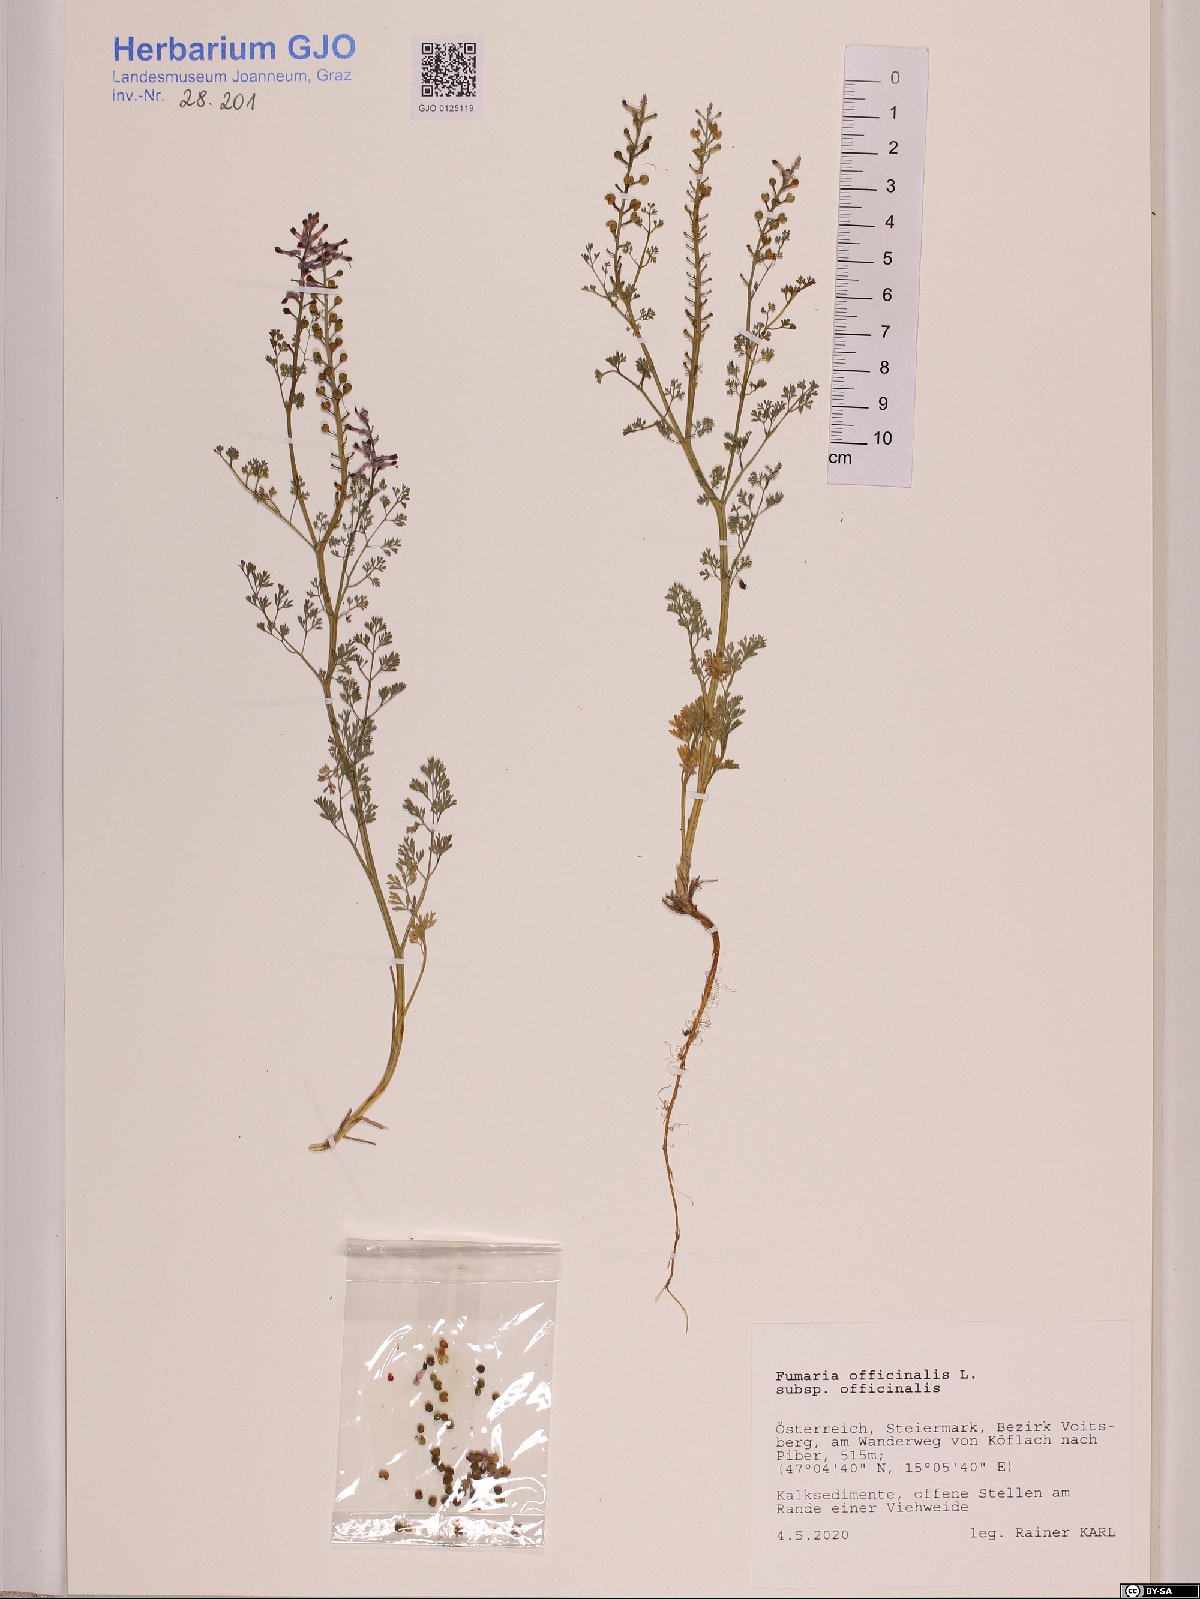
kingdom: Plantae
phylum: Tracheophyta
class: Magnoliopsida
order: Ranunculales
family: Papaveraceae
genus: Fumaria
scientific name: Fumaria officinalis
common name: Common fumitory
